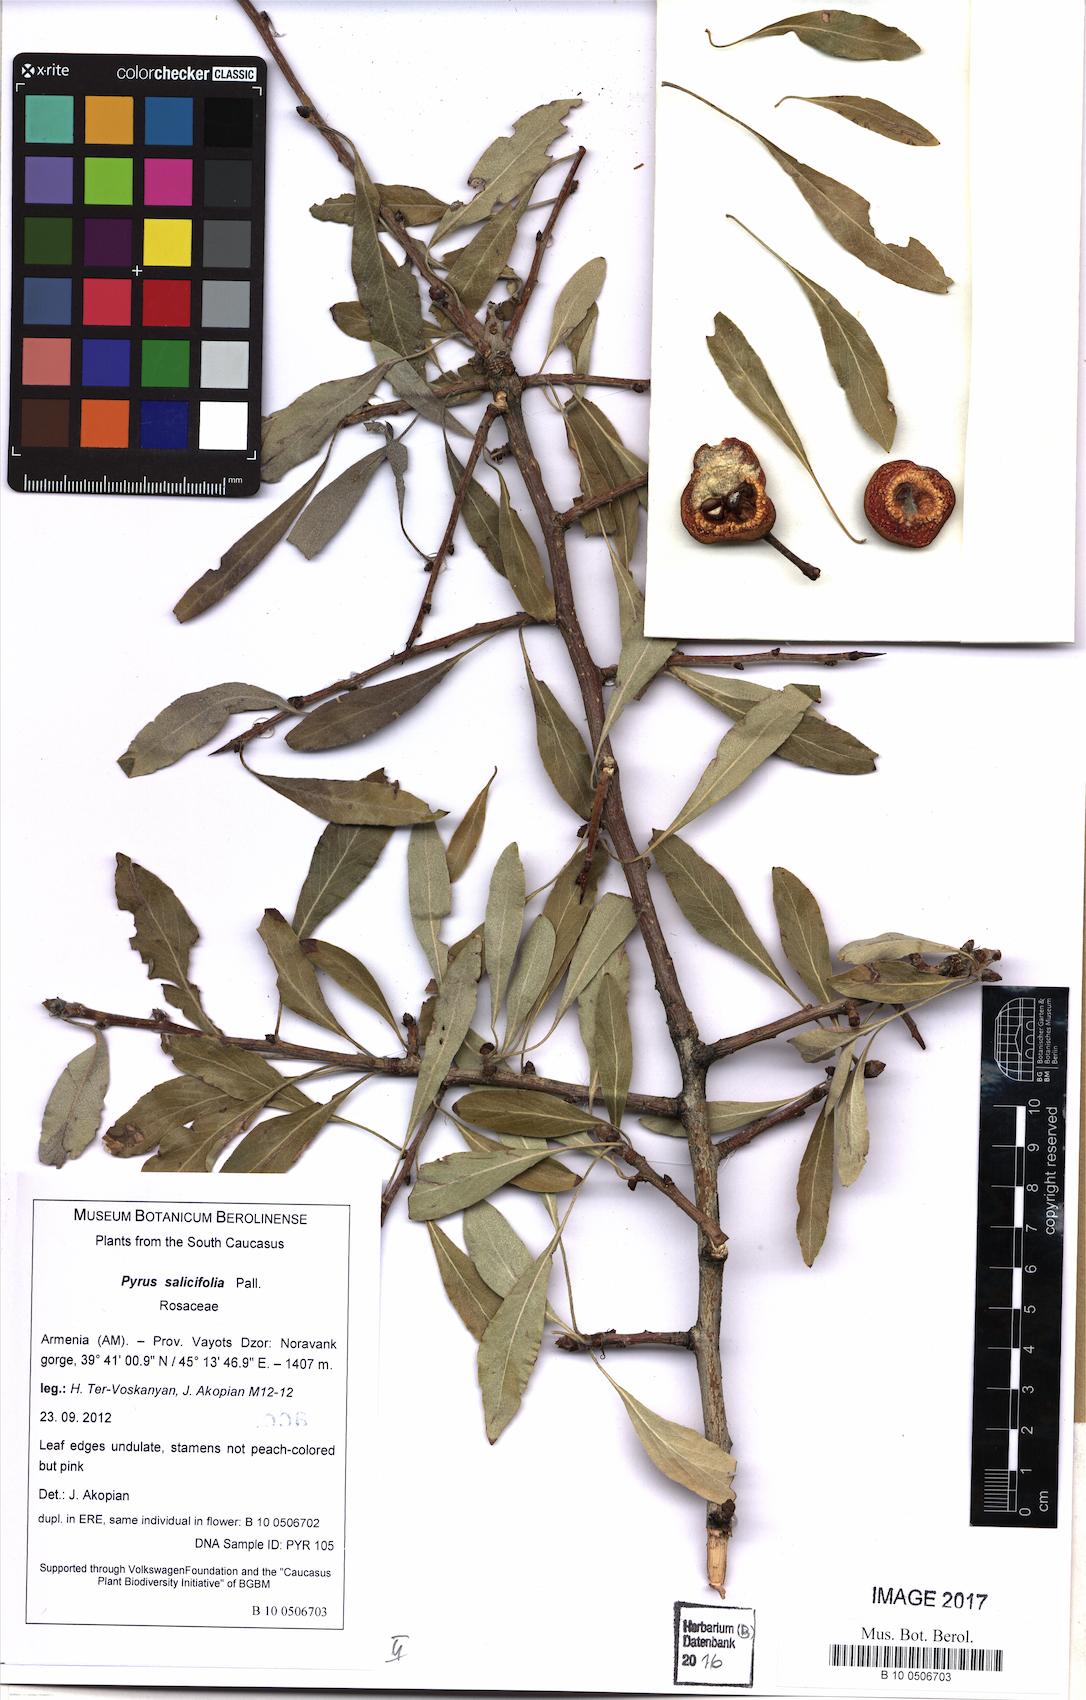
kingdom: Plantae
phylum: Tracheophyta
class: Magnoliopsida
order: Rosales
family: Rosaceae
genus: Pyrus
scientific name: Pyrus salicifolia
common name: Willow-leaved pear
